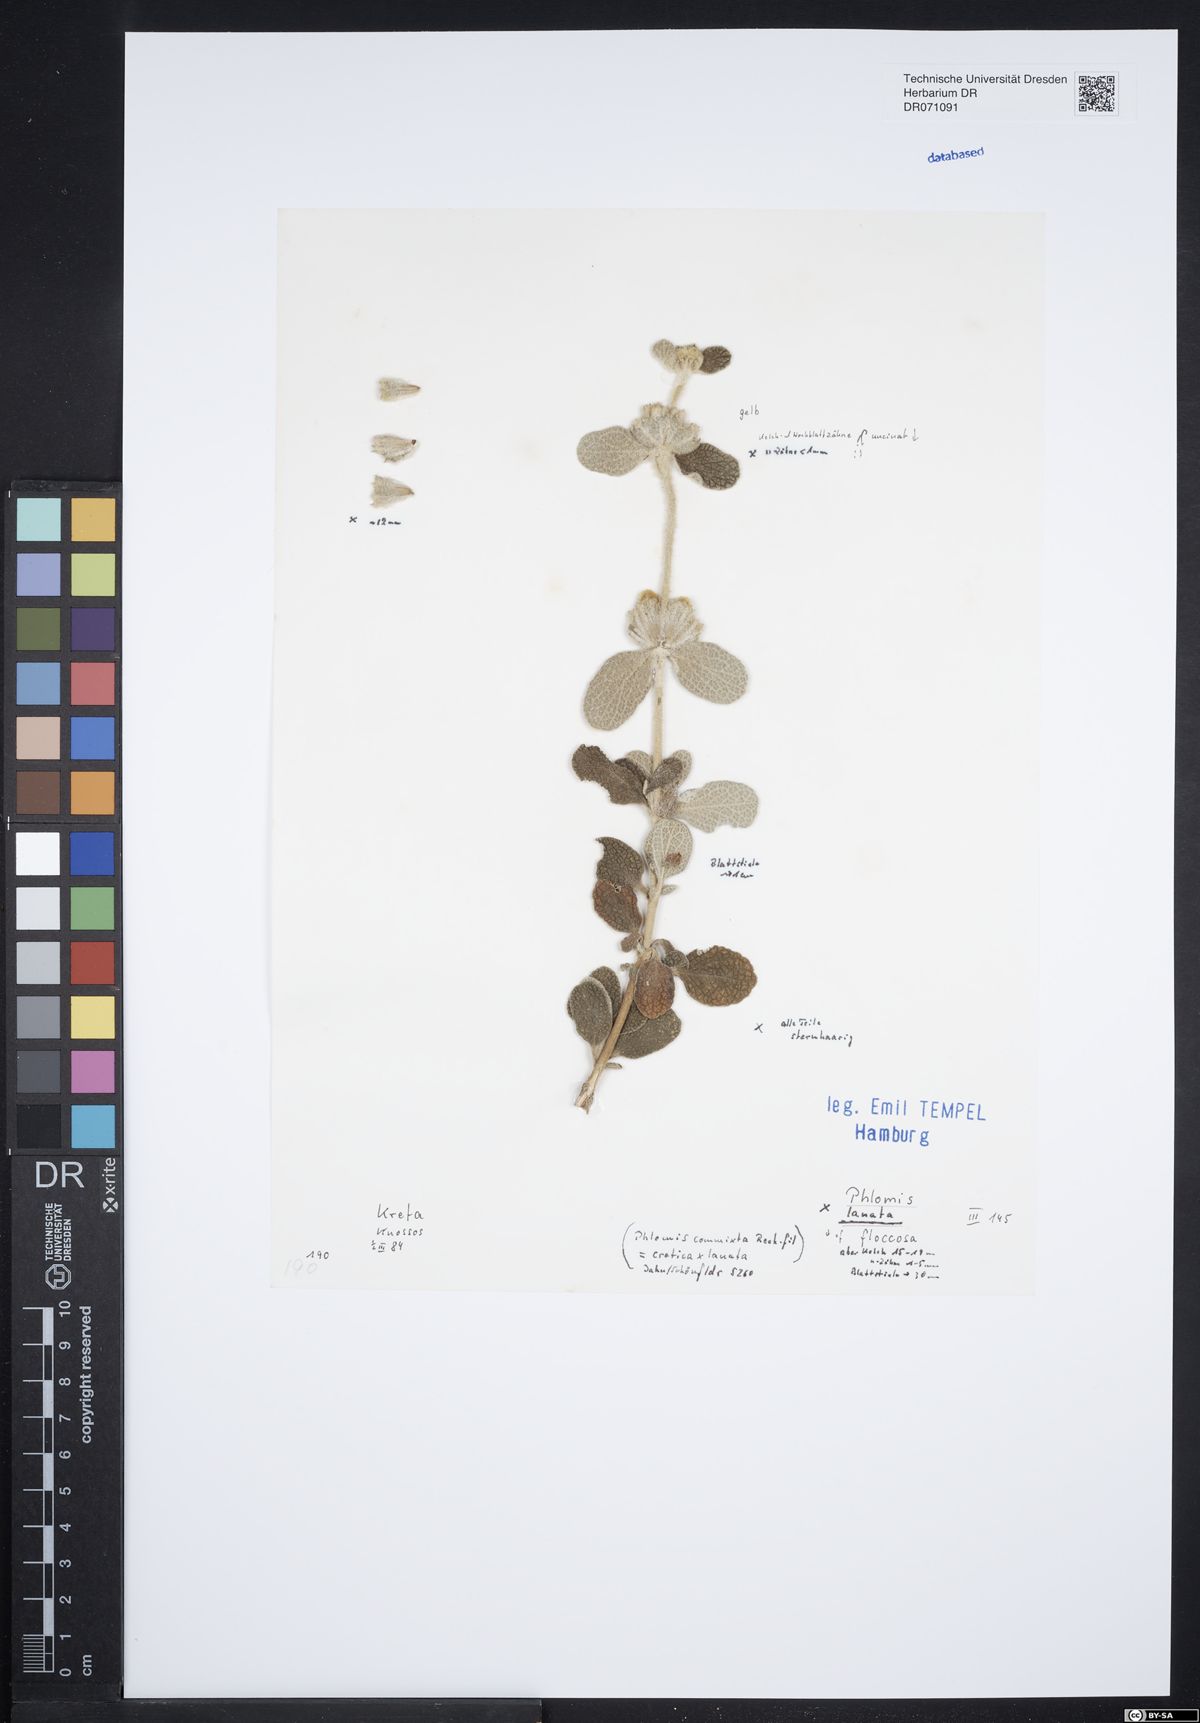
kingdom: Plantae
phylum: Tracheophyta
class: Magnoliopsida
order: Lamiales
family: Lamiaceae
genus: Phlomis
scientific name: Phlomis lanata
